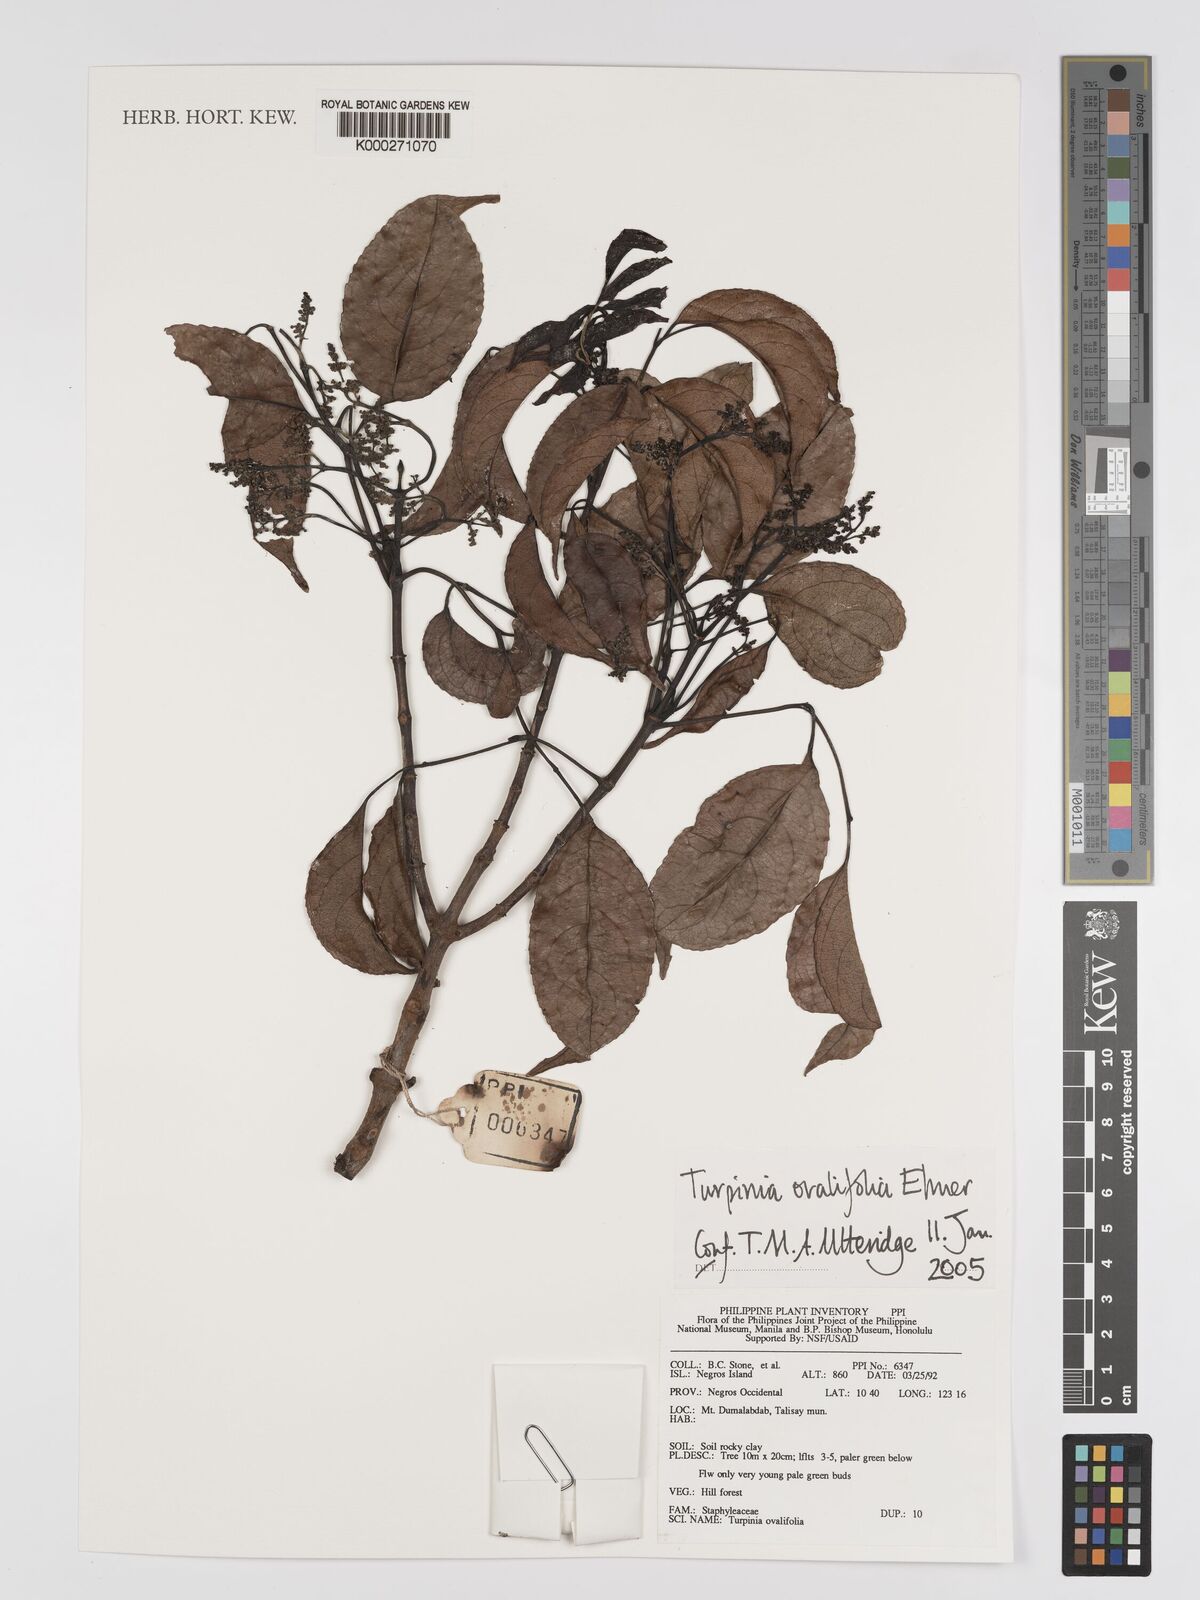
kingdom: Plantae
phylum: Tracheophyta
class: Magnoliopsida
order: Crossosomatales
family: Staphyleaceae
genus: Dalrympelea
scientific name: Dalrympelea trifoliata
